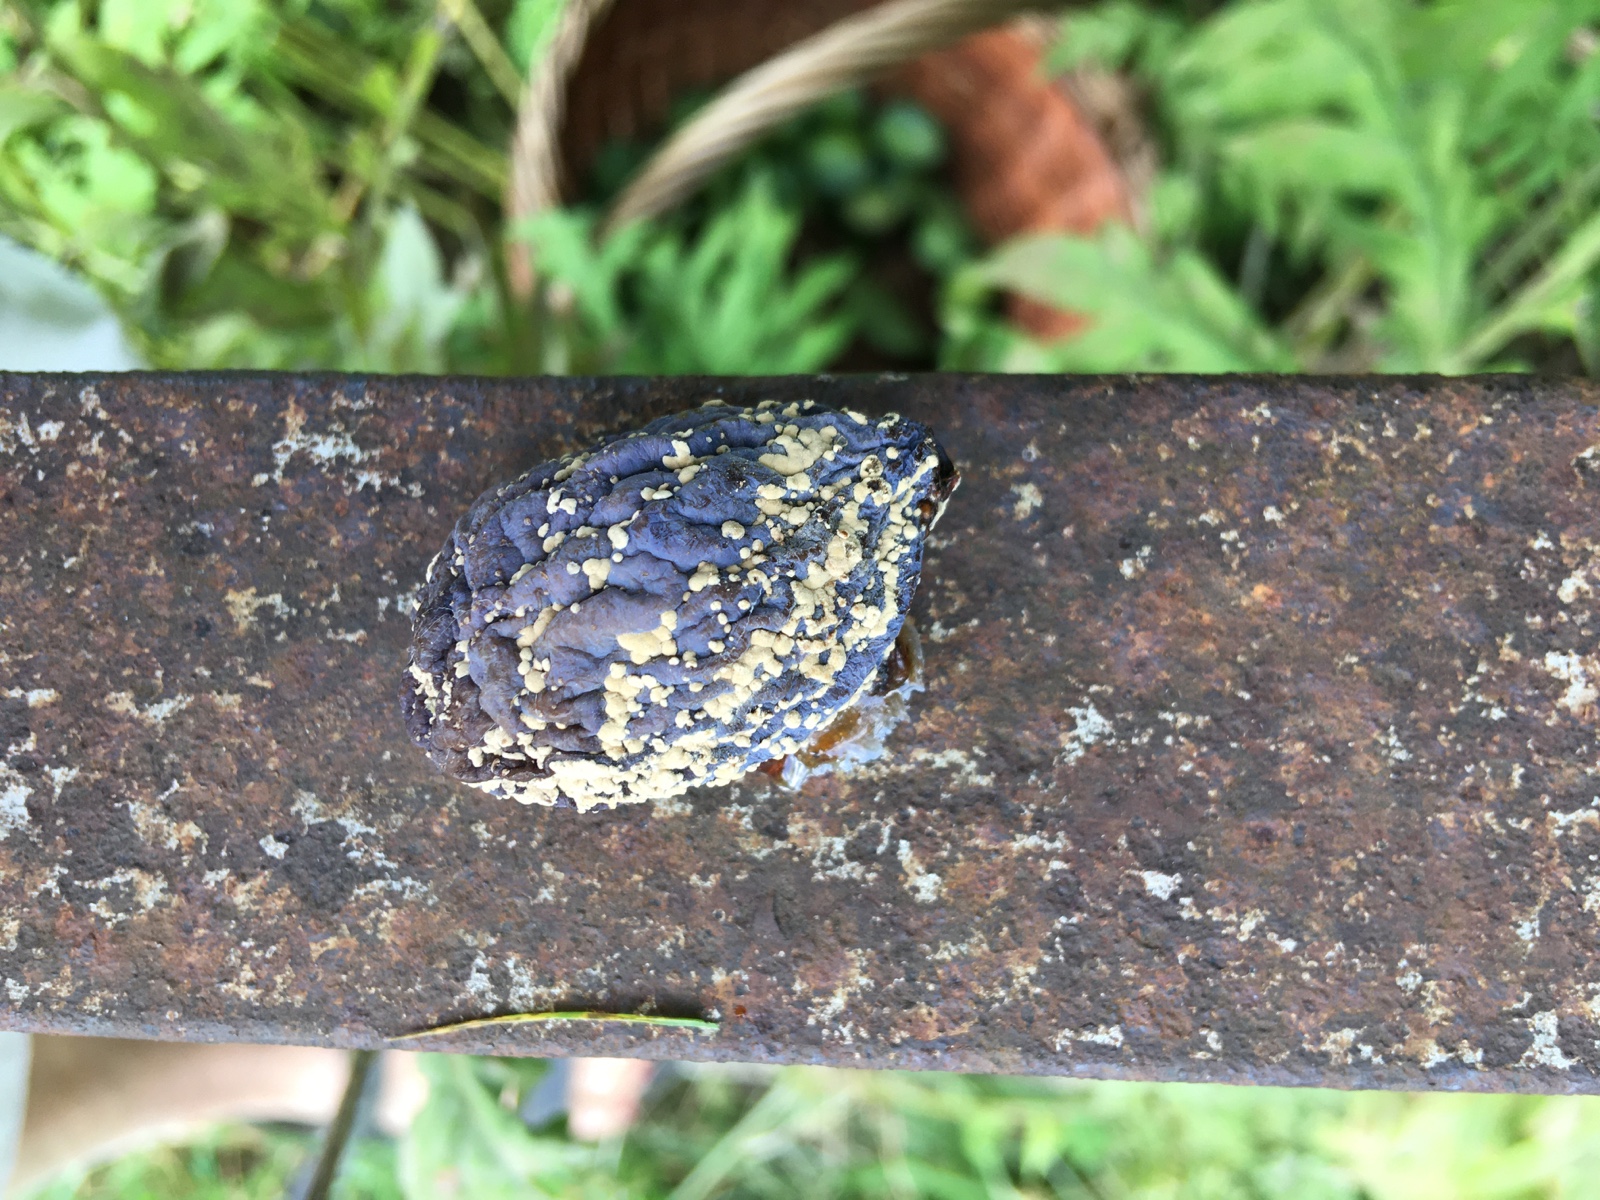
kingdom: Fungi
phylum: Ascomycota
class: Leotiomycetes
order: Helotiales
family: Sclerotiniaceae
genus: Monilinia
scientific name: Monilinia laxa
